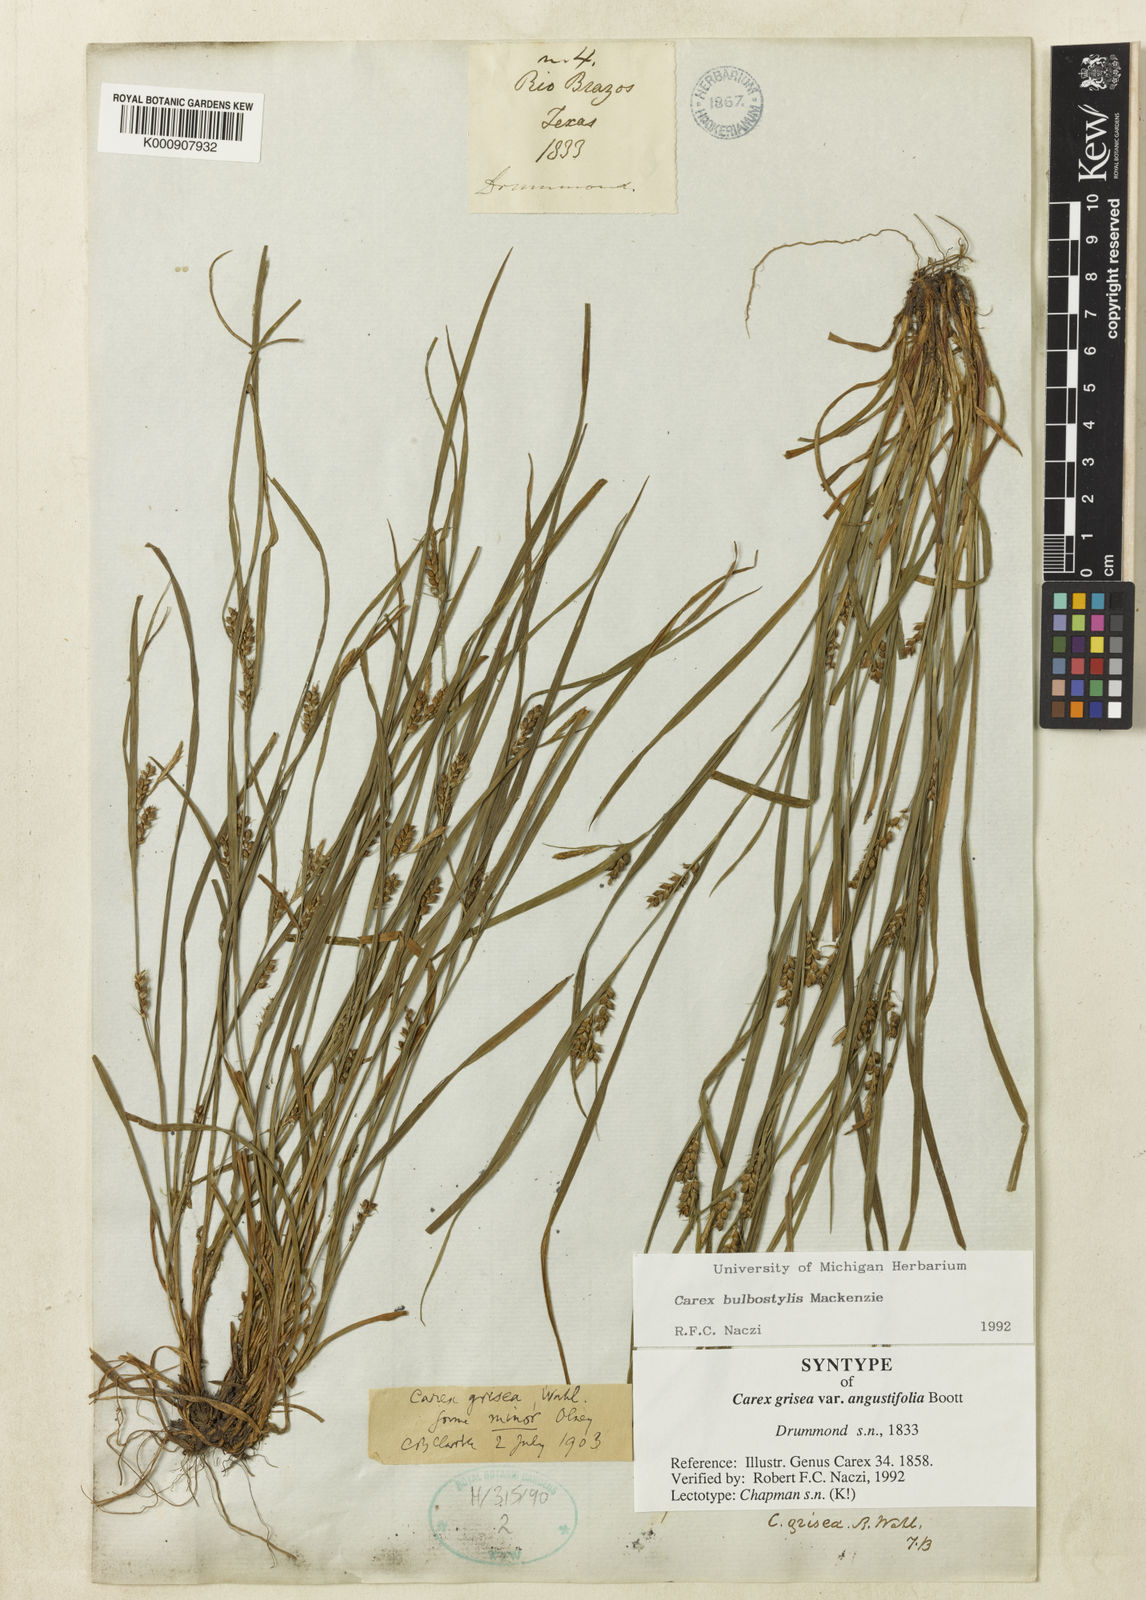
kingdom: Plantae
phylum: Tracheophyta
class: Liliopsida
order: Poales
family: Cyperaceae
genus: Carex
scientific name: Carex bulbostylis
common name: Eastern narrowleaf sedge
